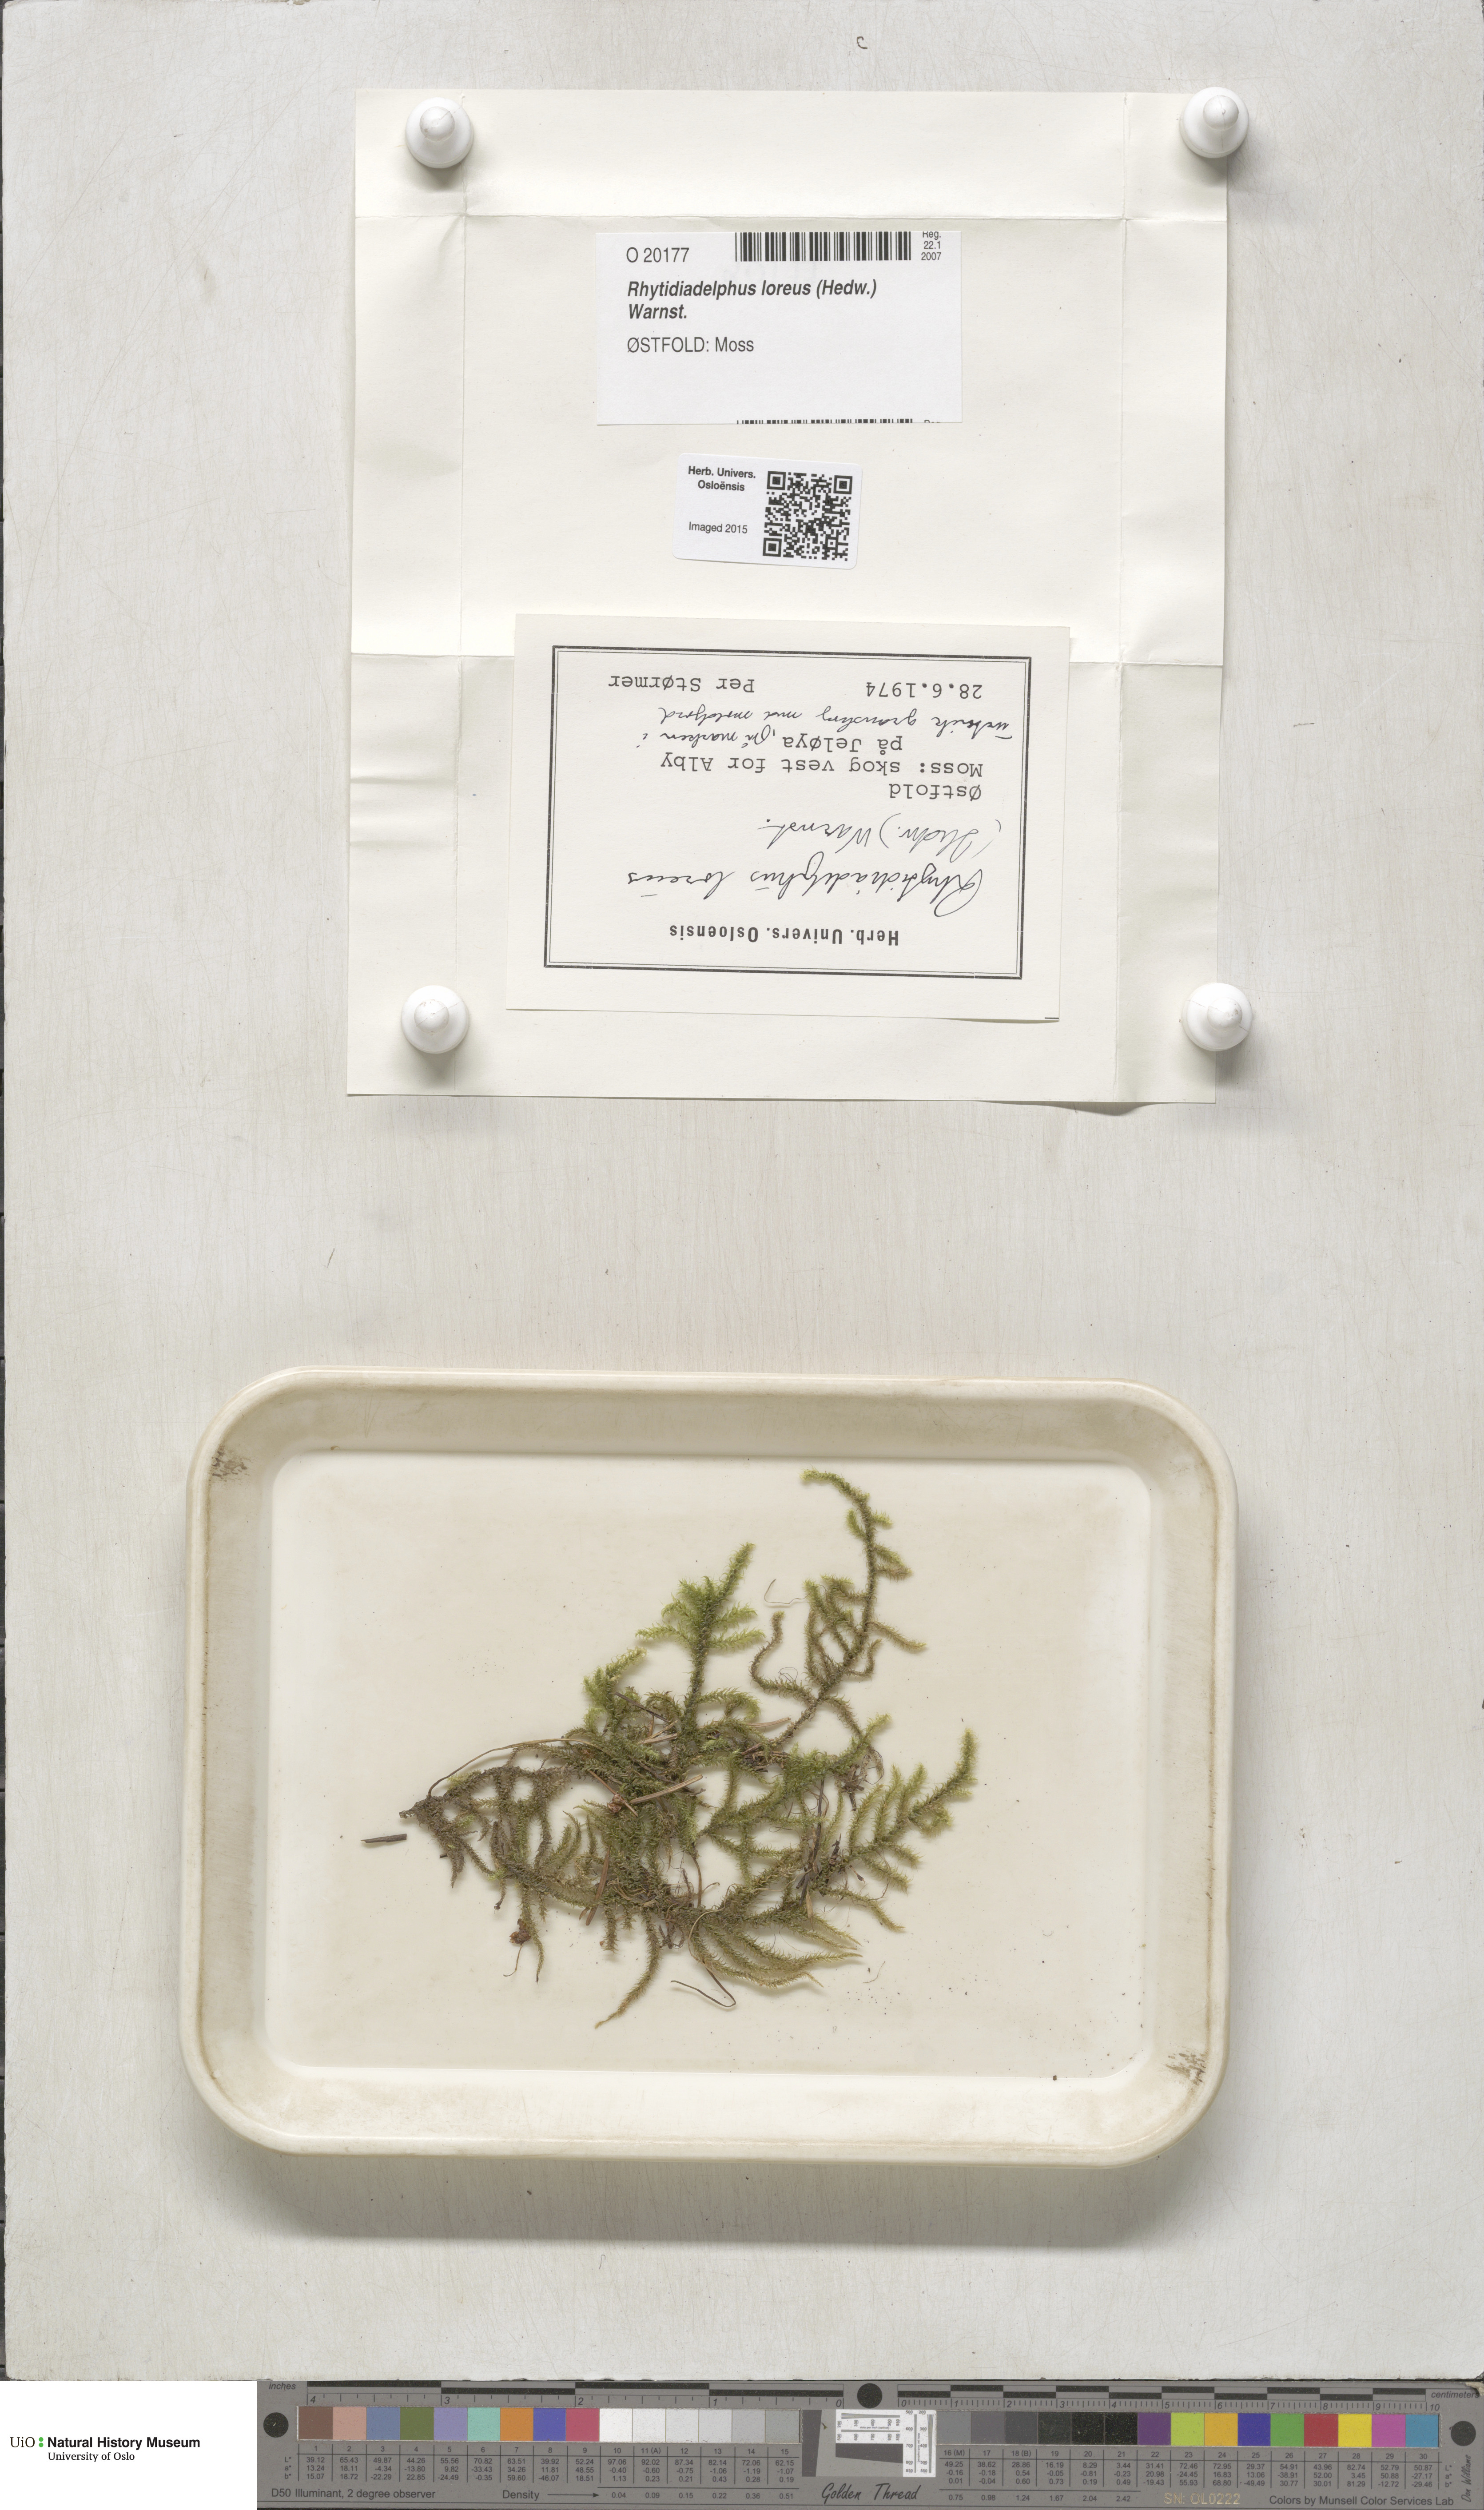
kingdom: Plantae
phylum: Bryophyta
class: Bryopsida
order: Hypnales
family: Hylocomiaceae
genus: Rhytidiadelphus
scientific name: Rhytidiadelphus loreus
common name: Lanky moss
